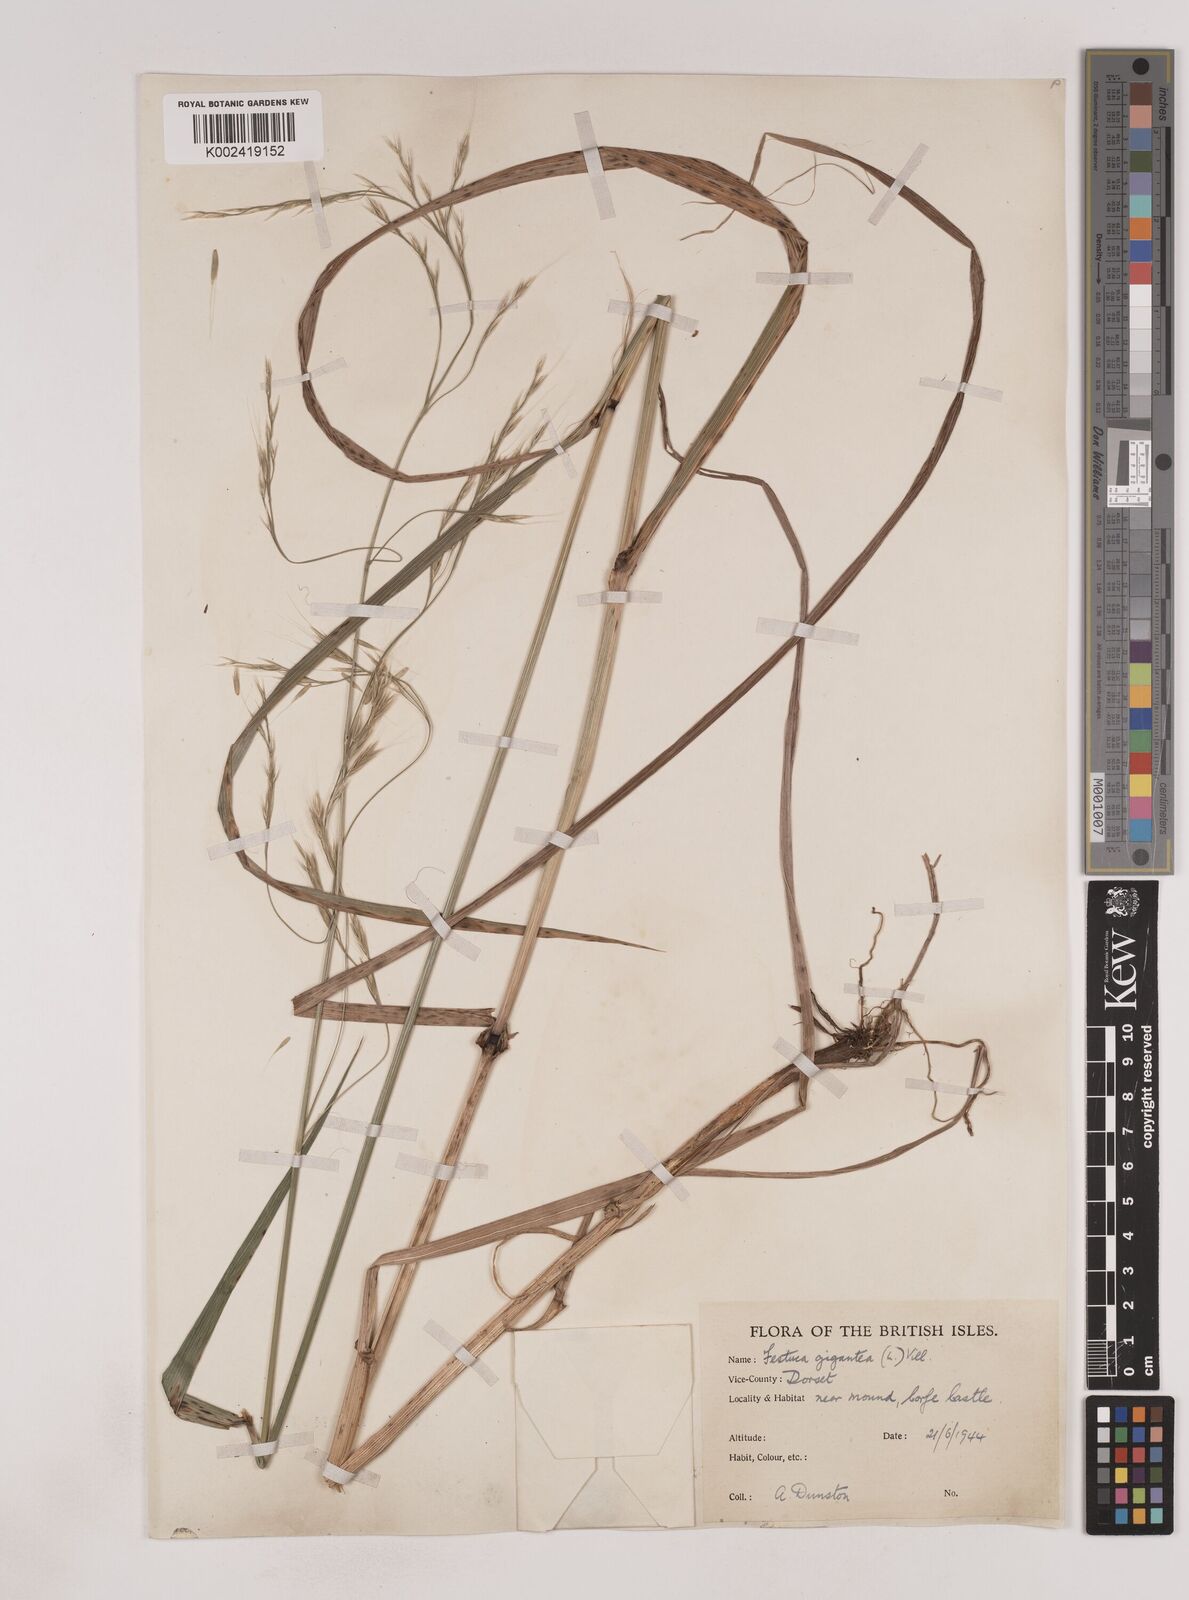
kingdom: Plantae
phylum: Tracheophyta
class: Liliopsida
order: Poales
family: Poaceae
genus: Lolium
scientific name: Lolium giganteum
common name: Giant fescue
